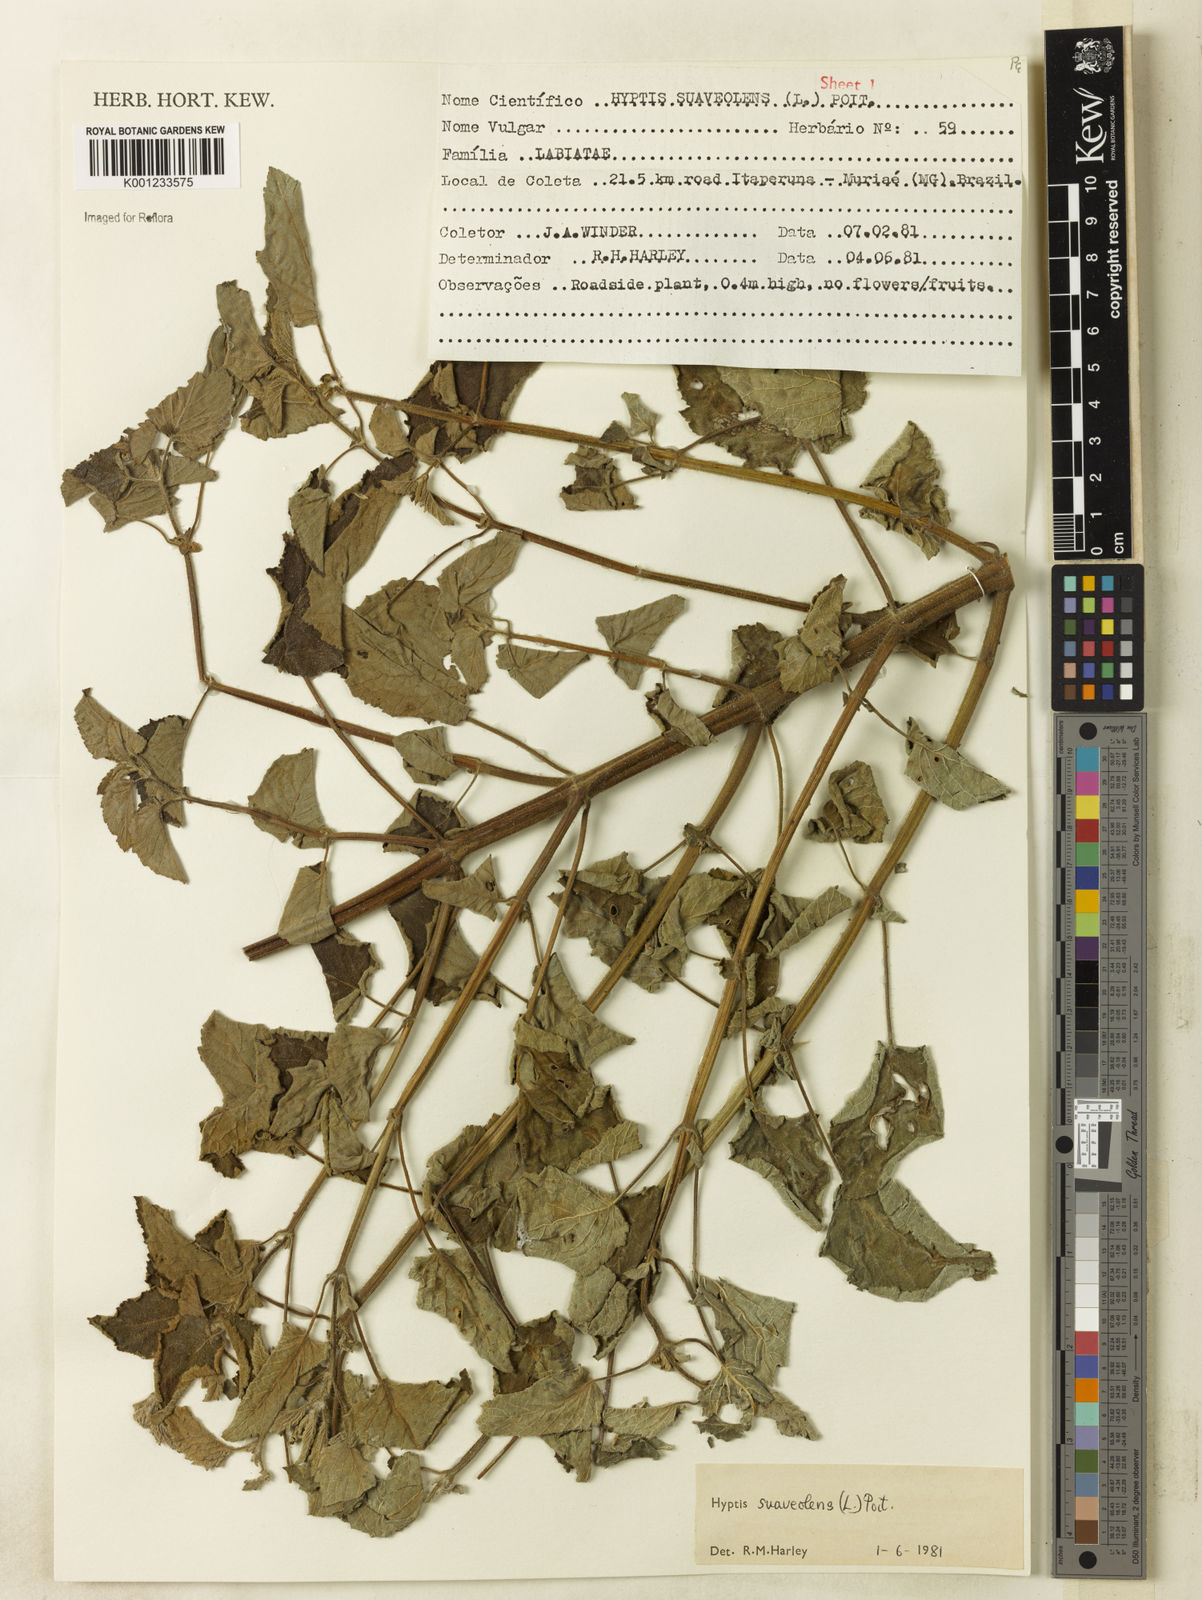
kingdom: Plantae
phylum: Tracheophyta
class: Magnoliopsida
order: Lamiales
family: Lamiaceae
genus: Mesosphaerum
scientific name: Mesosphaerum suaveolens
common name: Pignut
